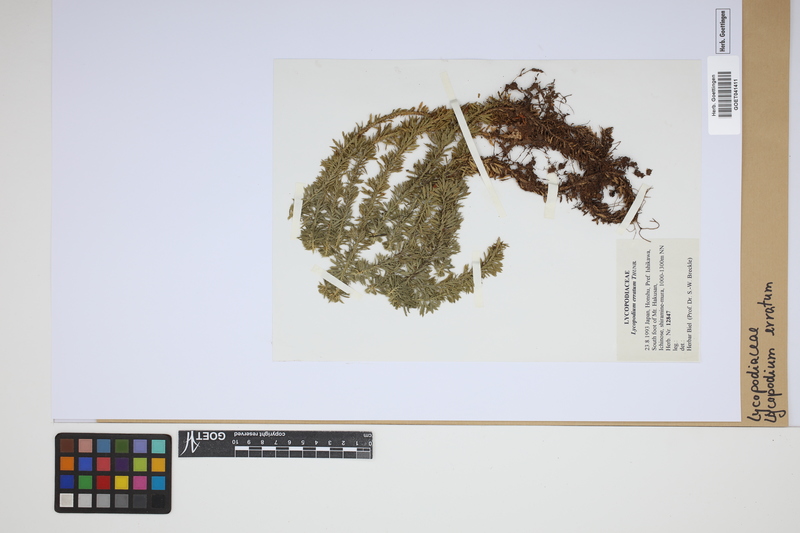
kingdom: Plantae
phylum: Tracheophyta
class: Lycopodiopsida
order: Lycopodiales
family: Lycopodiaceae
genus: Lycopodium
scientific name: Lycopodium
